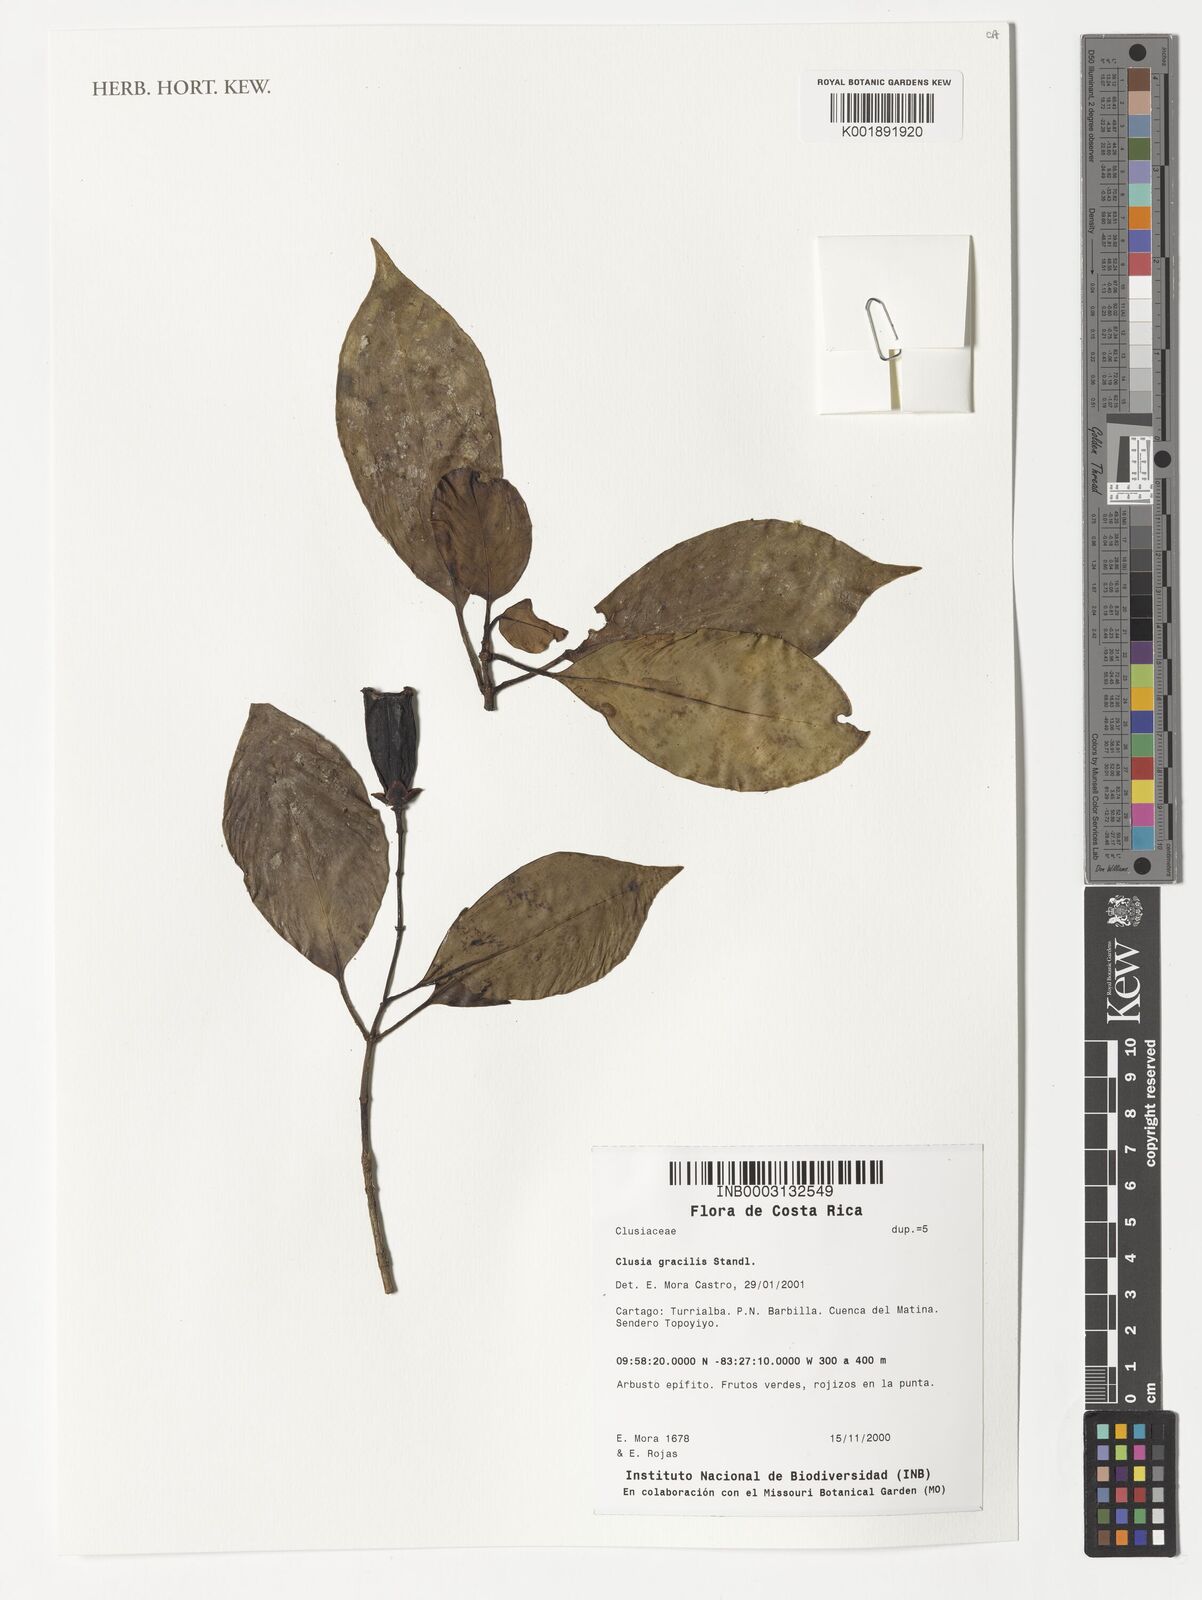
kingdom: Plantae
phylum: Tracheophyta
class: Magnoliopsida
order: Malpighiales
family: Clusiaceae
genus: Clusia
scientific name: Clusia gracilis
